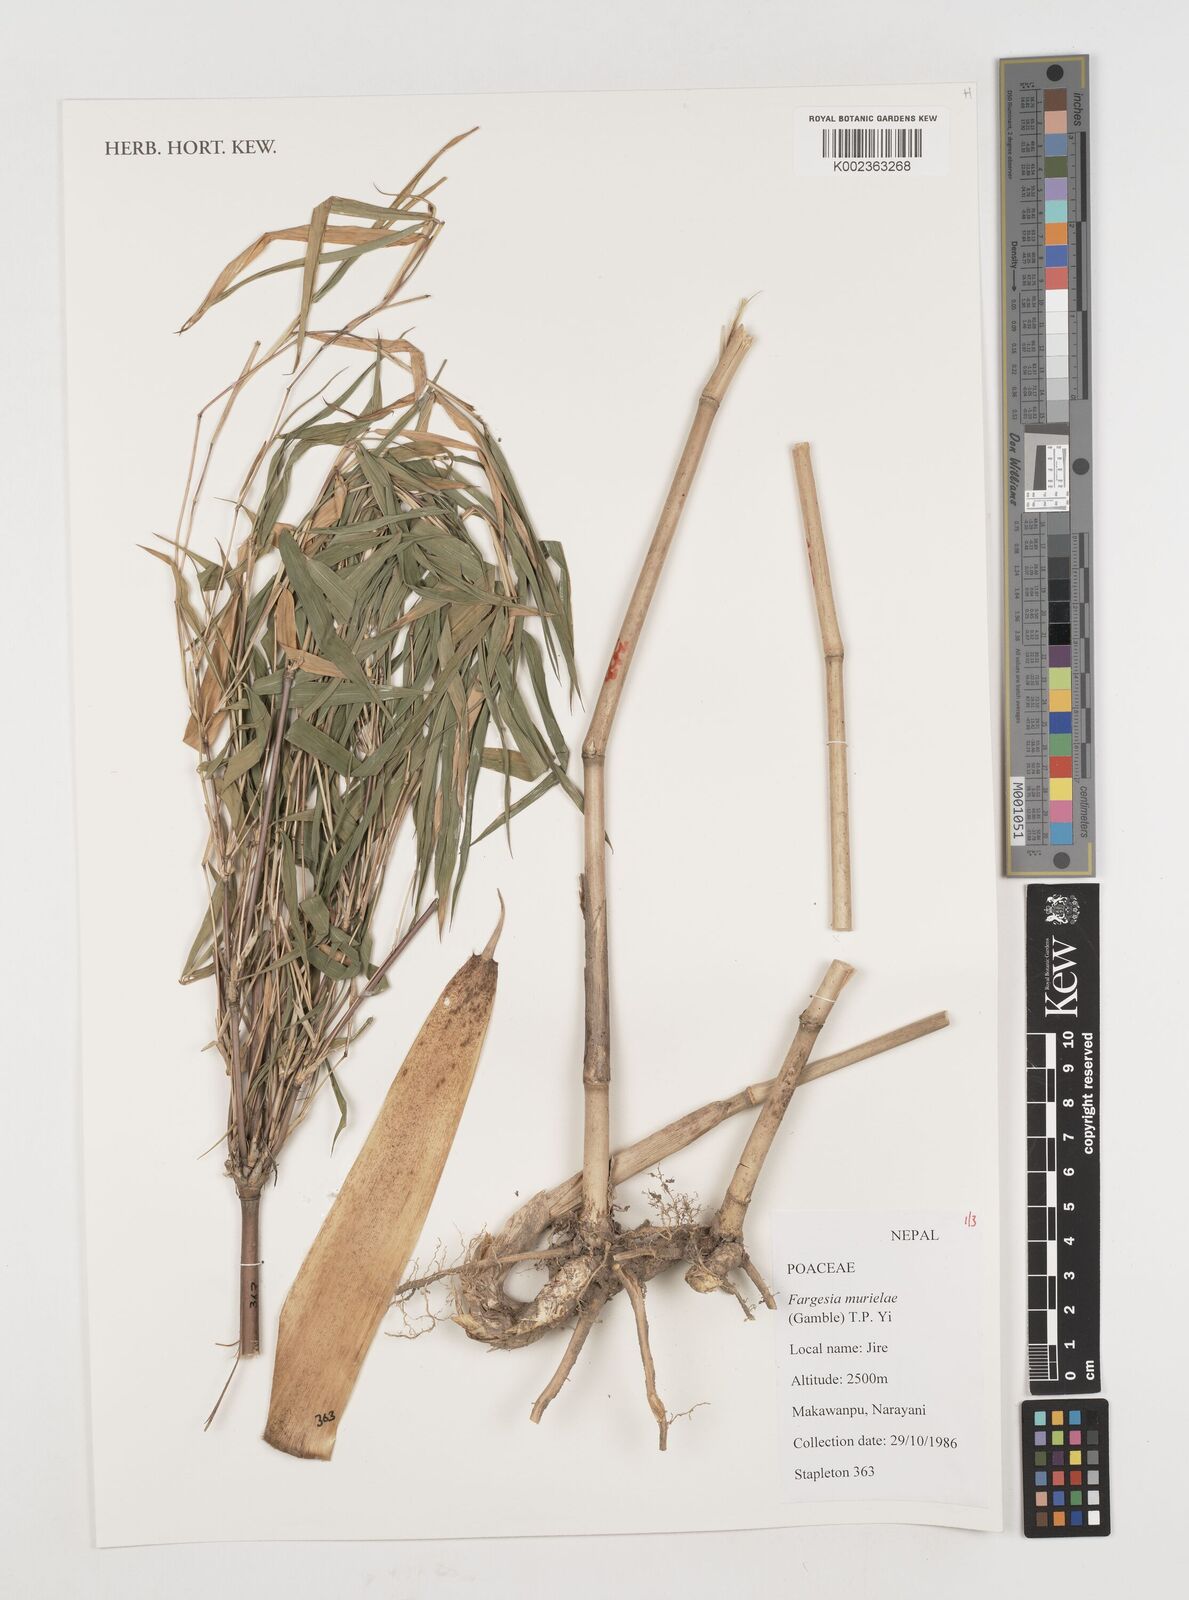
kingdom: Plantae
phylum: Tracheophyta
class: Liliopsida
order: Poales
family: Poaceae
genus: Fargesia
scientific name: Fargesia murielae
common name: Umbrella bamboo
